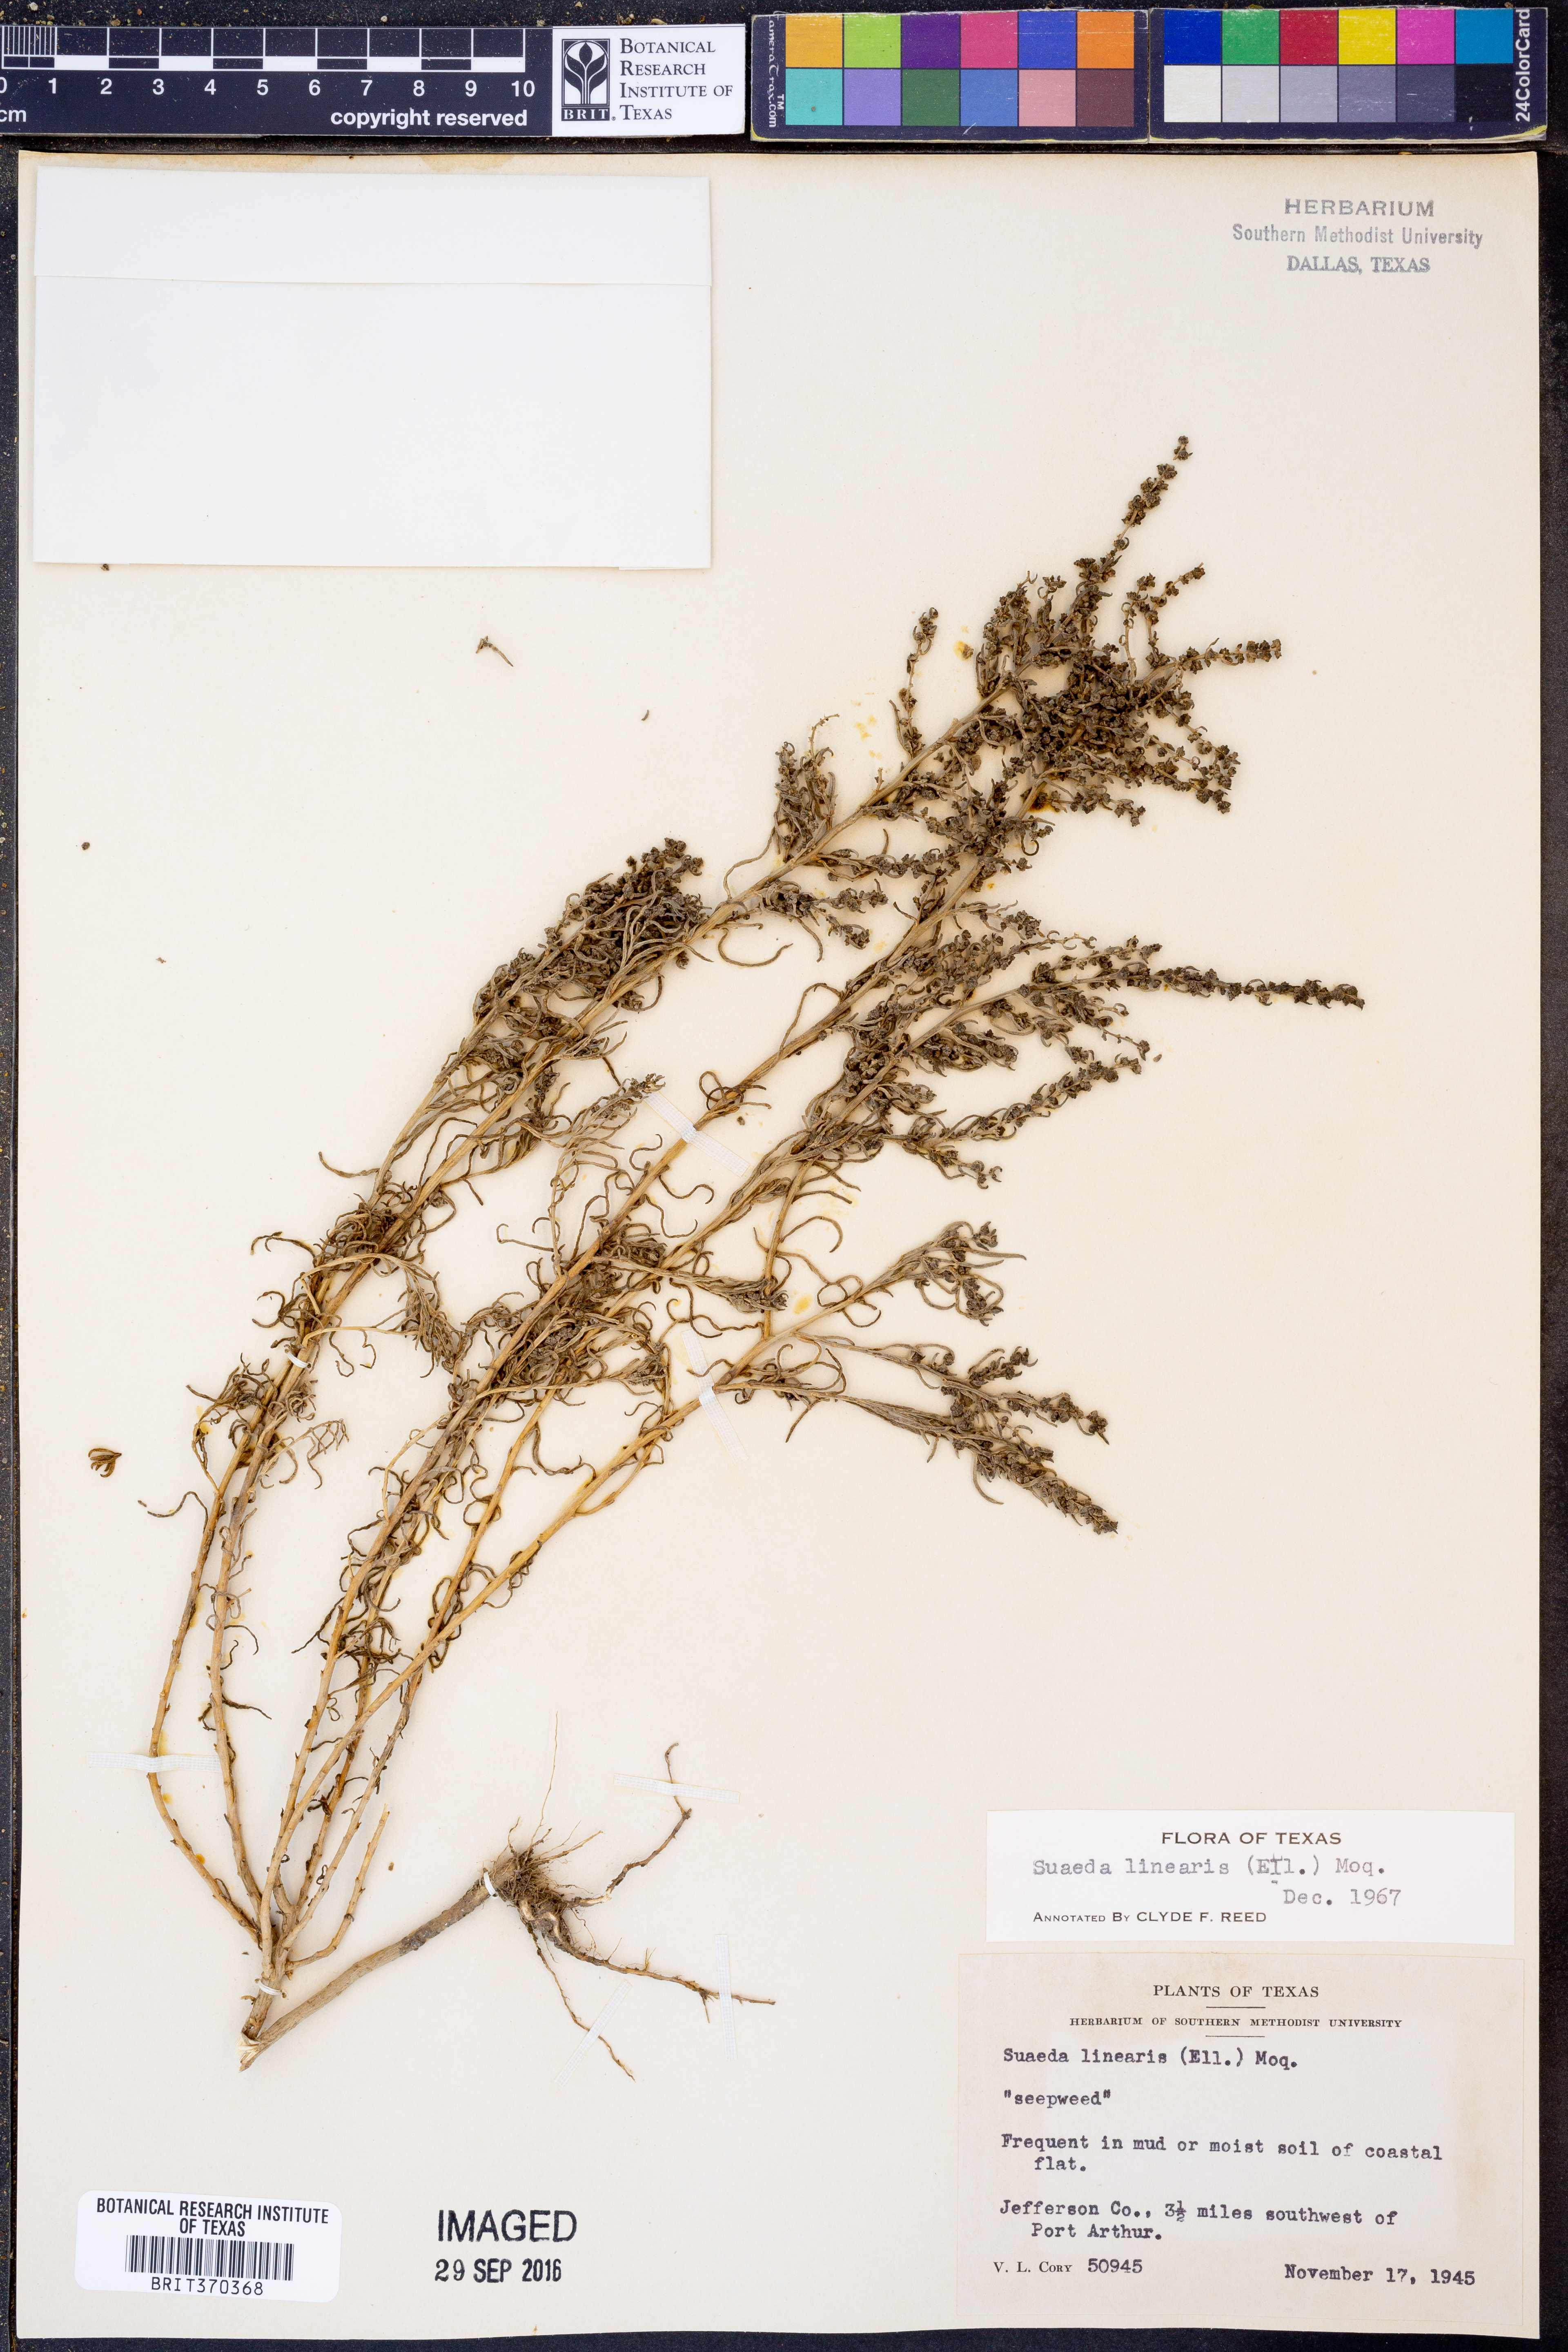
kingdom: Plantae
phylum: Tracheophyta
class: Magnoliopsida
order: Caryophyllales
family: Amaranthaceae
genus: Suaeda
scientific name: Suaeda linearis
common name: Annual seepweed
